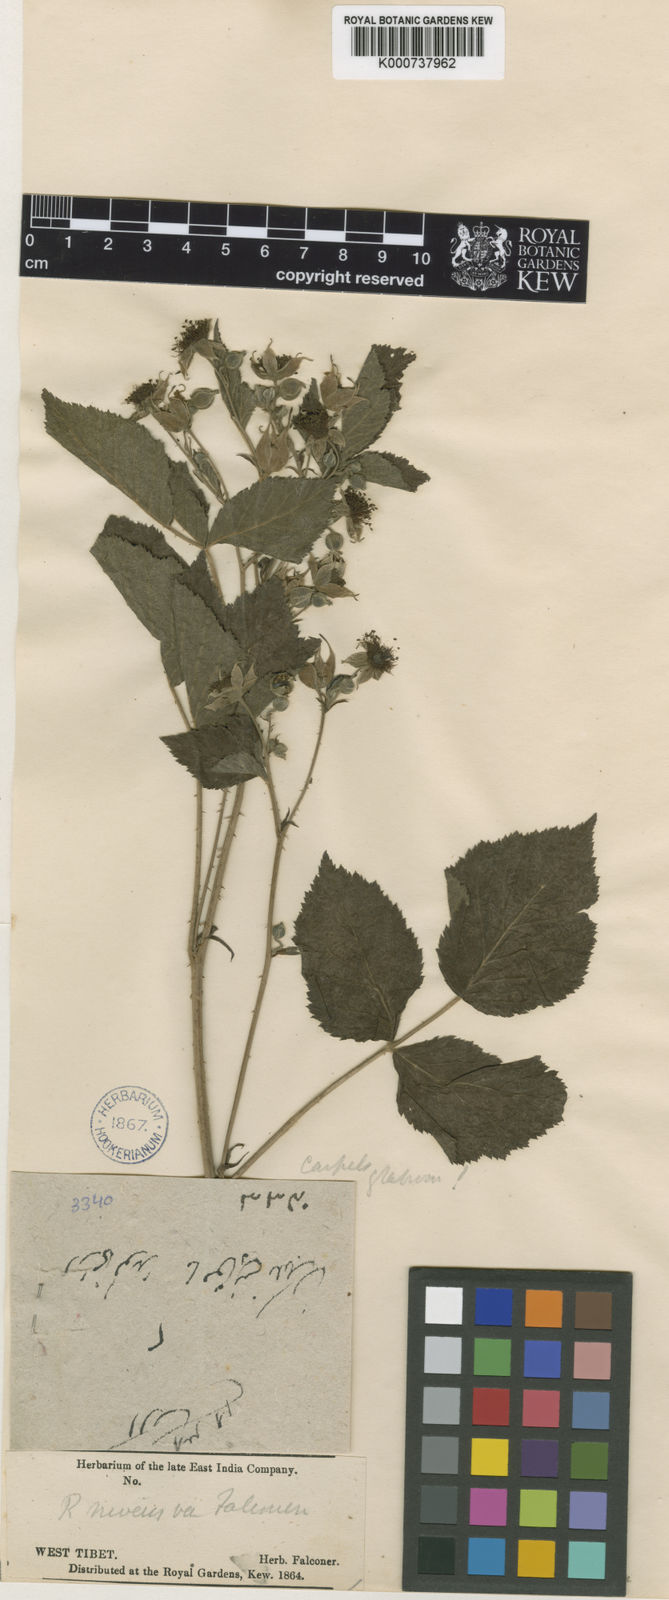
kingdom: Plantae
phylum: Tracheophyta
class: Magnoliopsida
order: Rosales
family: Rosaceae
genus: Rubus
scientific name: Rubus pedunculosus
